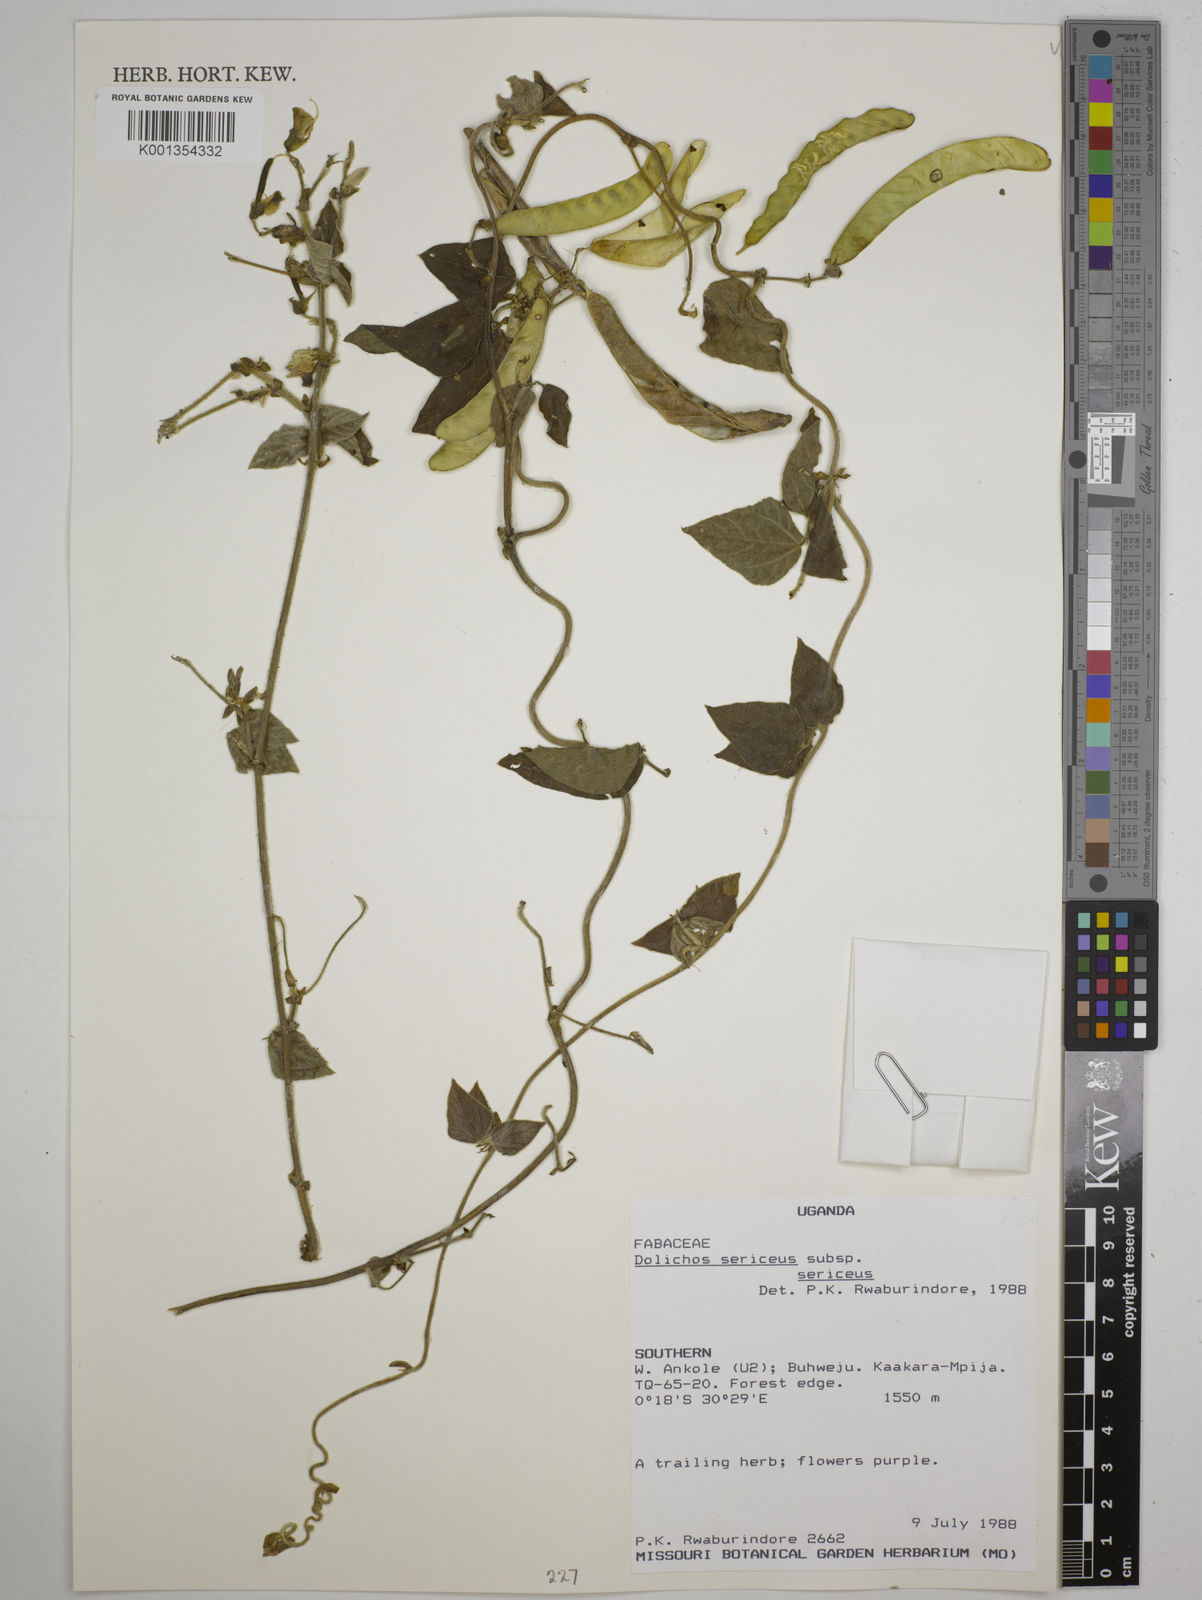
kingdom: Plantae
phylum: Tracheophyta
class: Magnoliopsida
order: Fabales
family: Fabaceae
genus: Dolichos
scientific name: Dolichos
